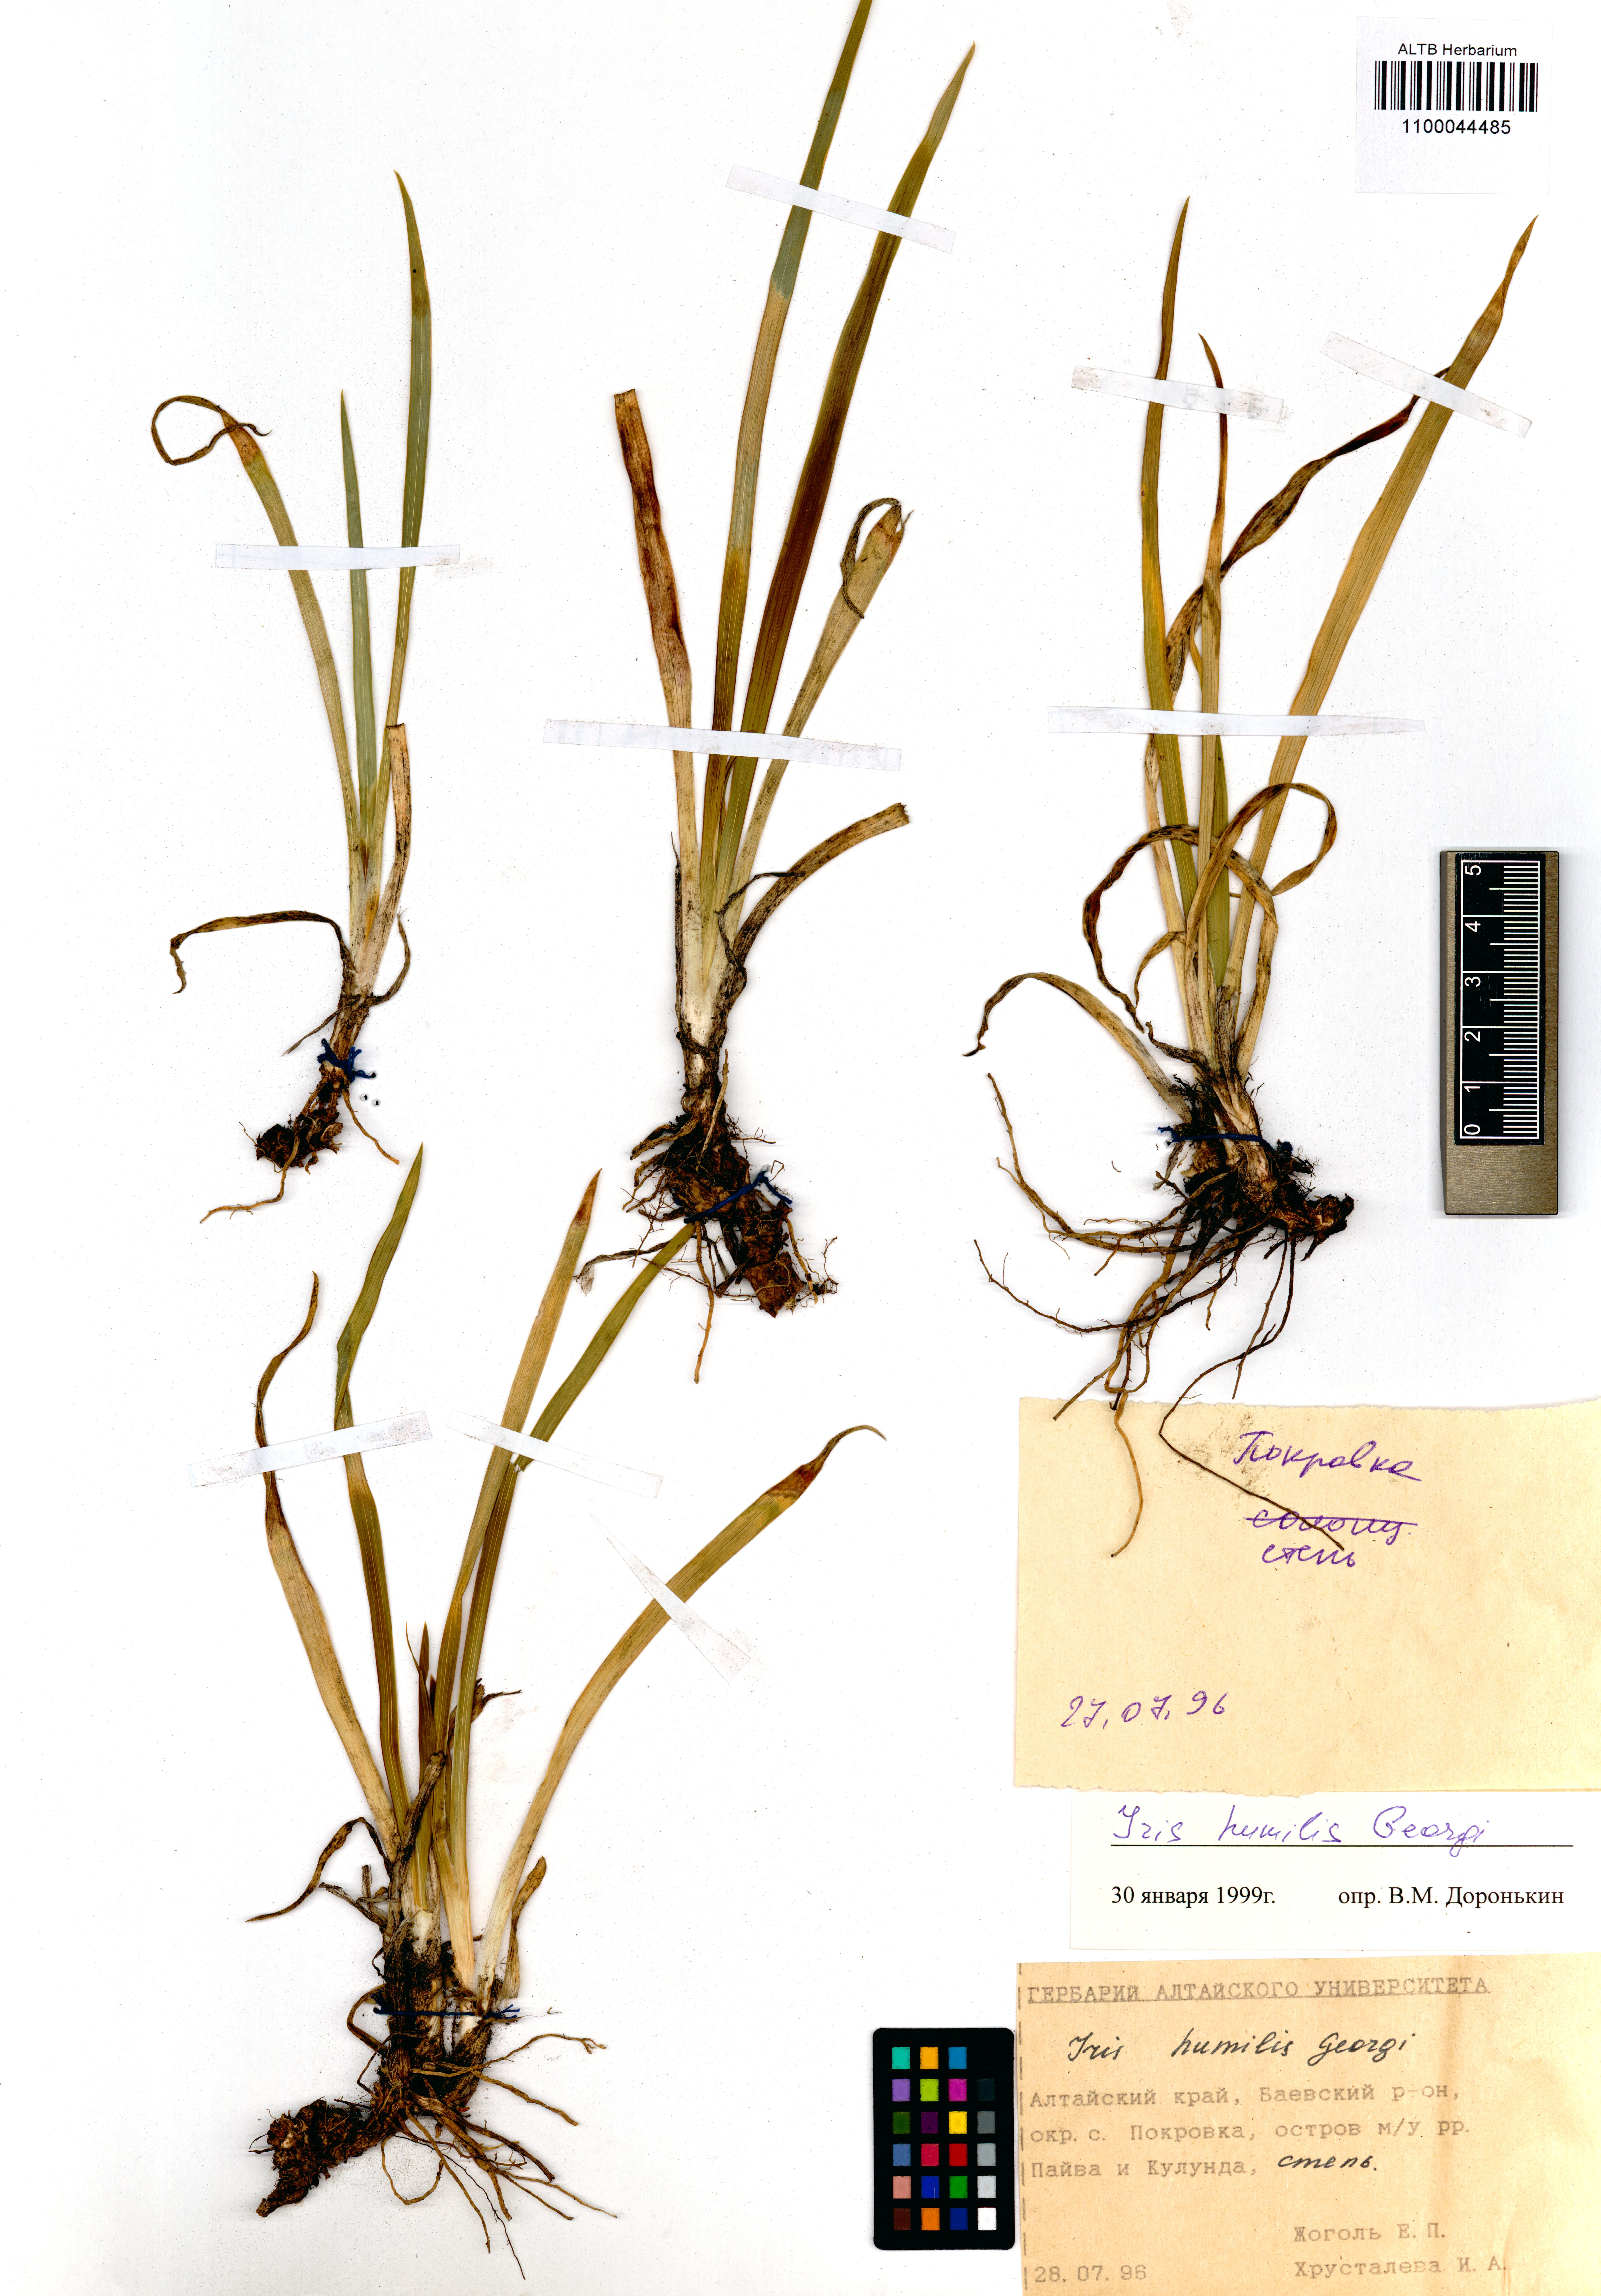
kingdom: Plantae
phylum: Tracheophyta
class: Liliopsida
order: Asparagales
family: Iridaceae
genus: Iris
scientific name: Iris humilis
